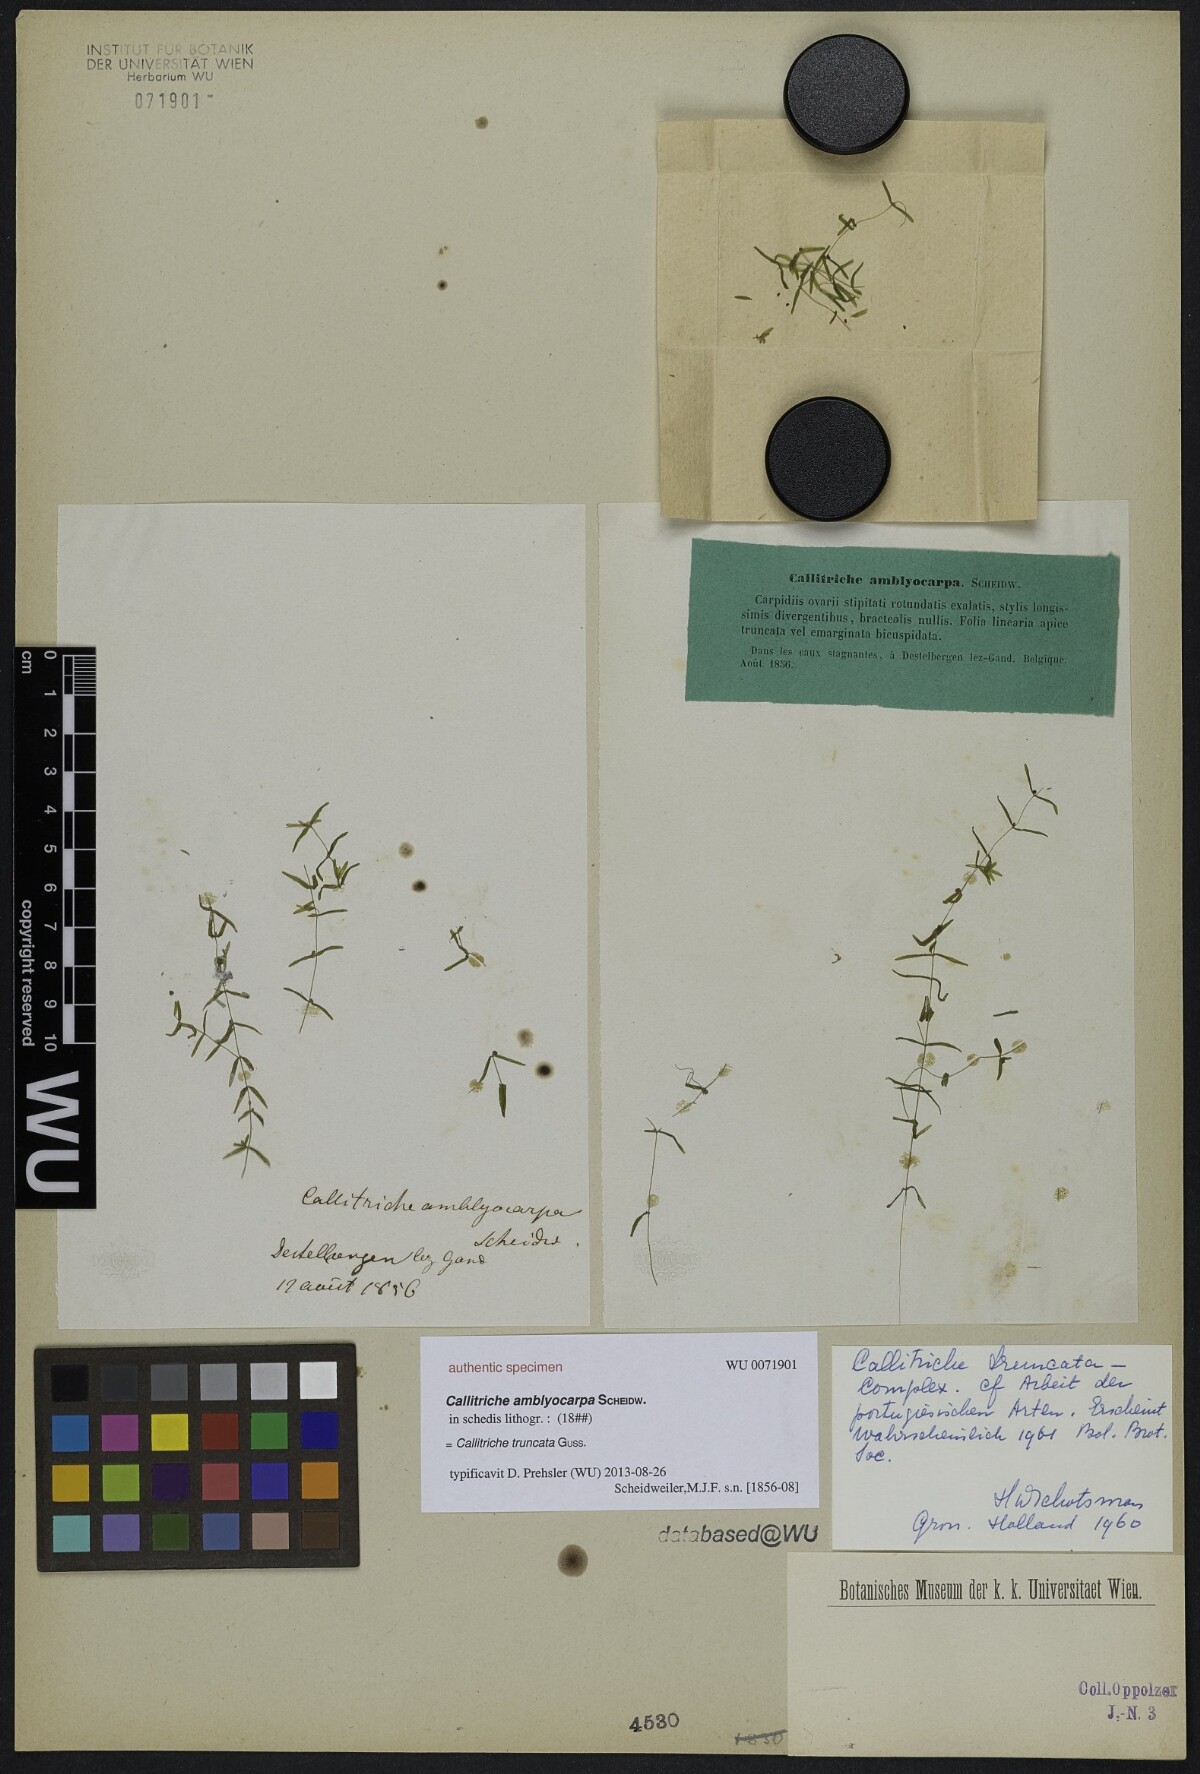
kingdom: Plantae
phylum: Tracheophyta
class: Magnoliopsida
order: Lamiales
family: Plantaginaceae
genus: Callitriche
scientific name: Callitriche truncata
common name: Short-leaved water-starwort
